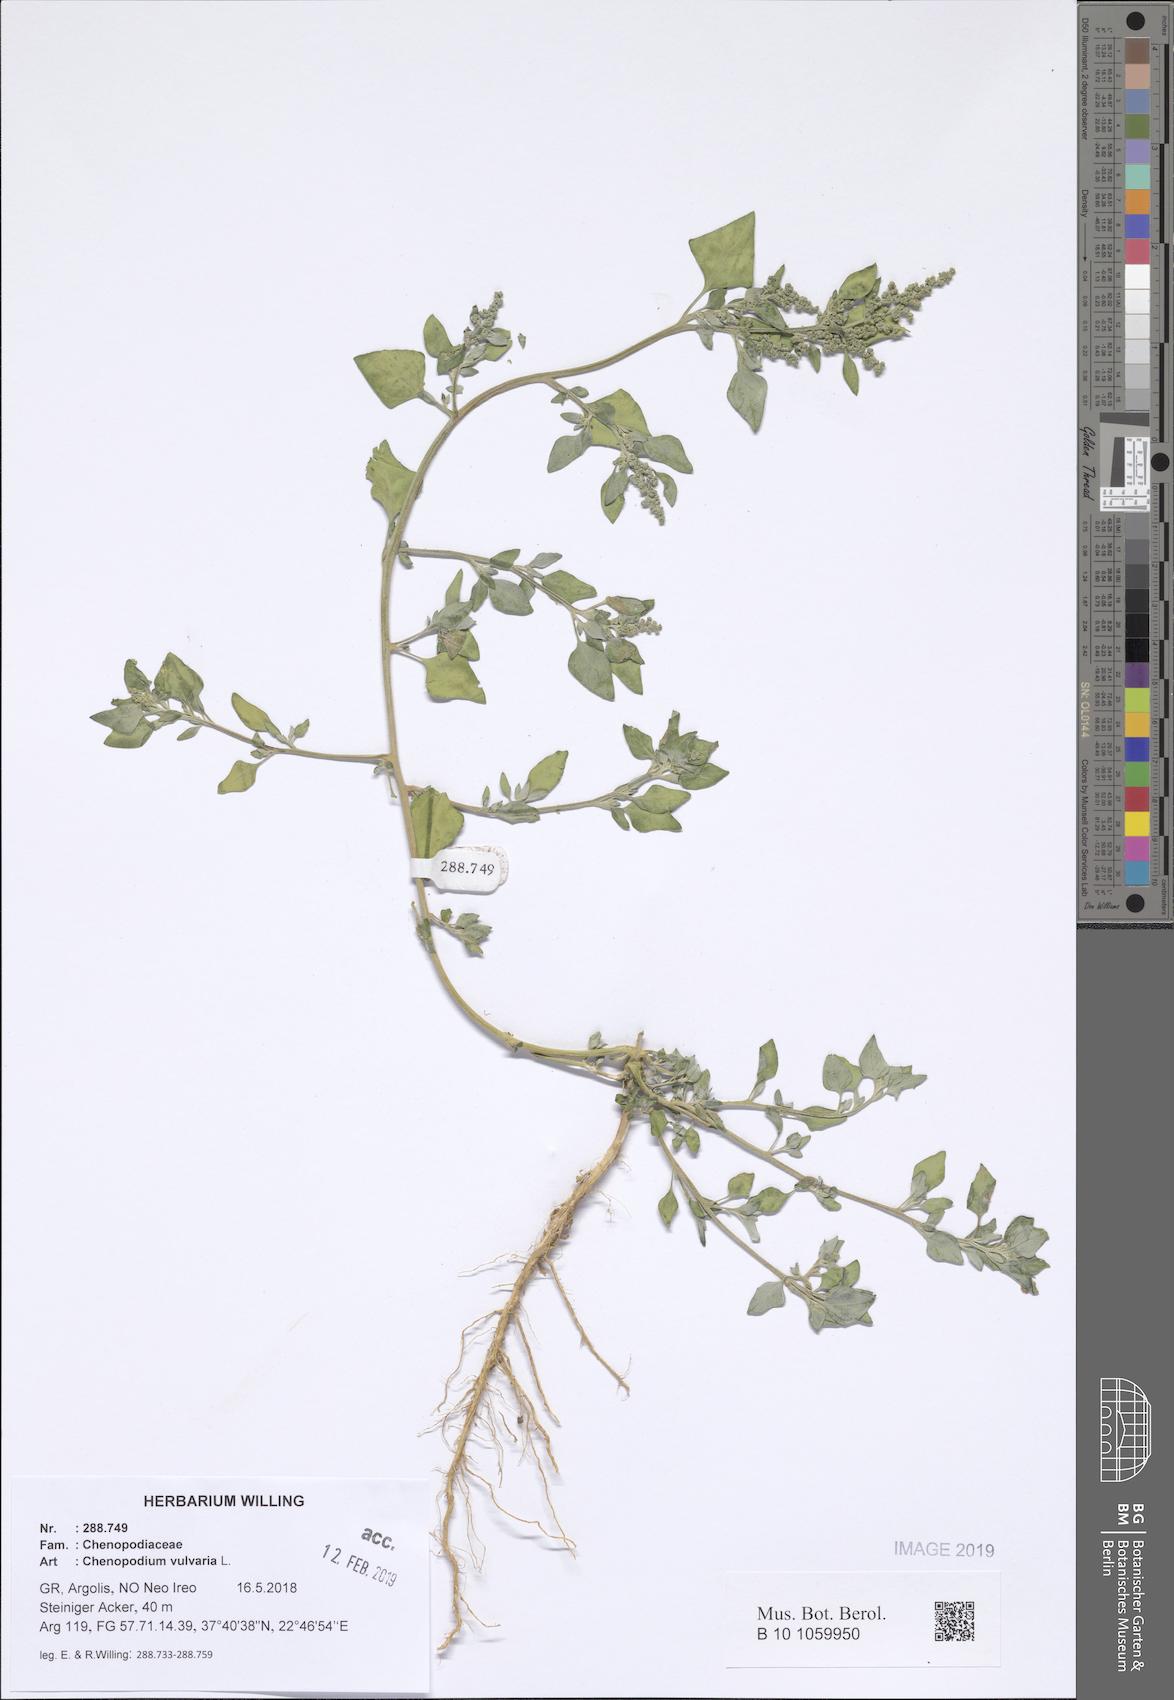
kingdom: Plantae
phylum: Tracheophyta
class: Magnoliopsida
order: Caryophyllales
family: Amaranthaceae
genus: Chenopodium
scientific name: Chenopodium vulvaria
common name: Stinking goosefoot
